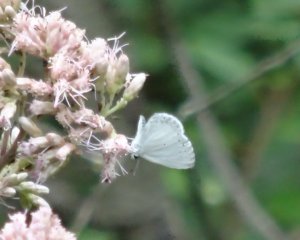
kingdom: Animalia
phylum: Arthropoda
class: Insecta
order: Lepidoptera
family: Lycaenidae
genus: Cyaniris
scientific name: Cyaniris neglecta
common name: Summer Azure
